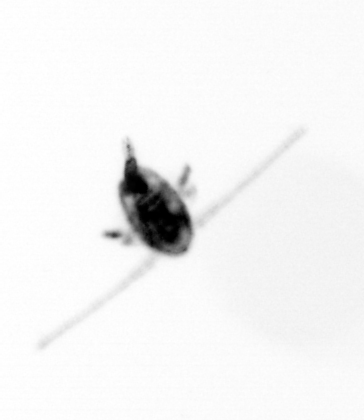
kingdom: Animalia
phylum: Arthropoda
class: Copepoda
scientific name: Copepoda
